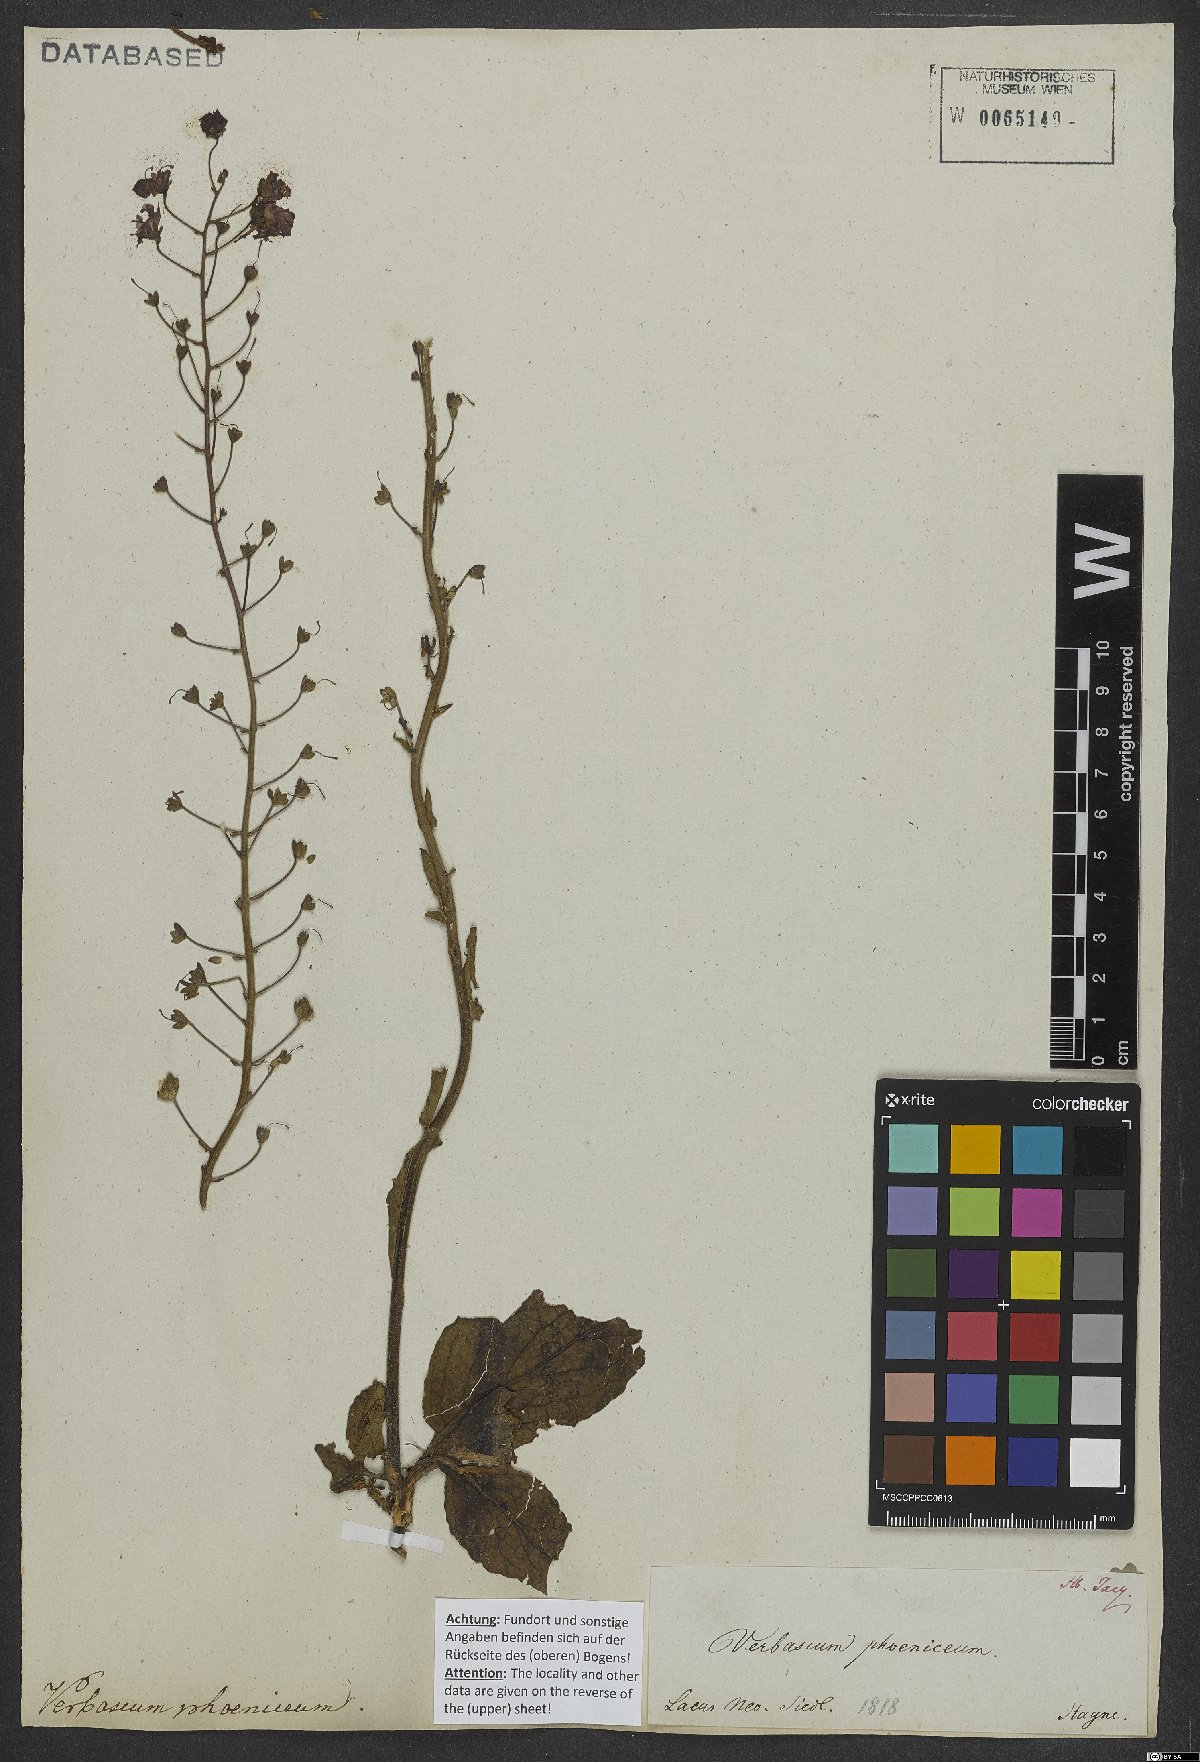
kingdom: Plantae
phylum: Tracheophyta
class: Magnoliopsida
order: Lamiales
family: Scrophulariaceae
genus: Verbascum
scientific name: Verbascum phoeniceum
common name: Purple mullein
